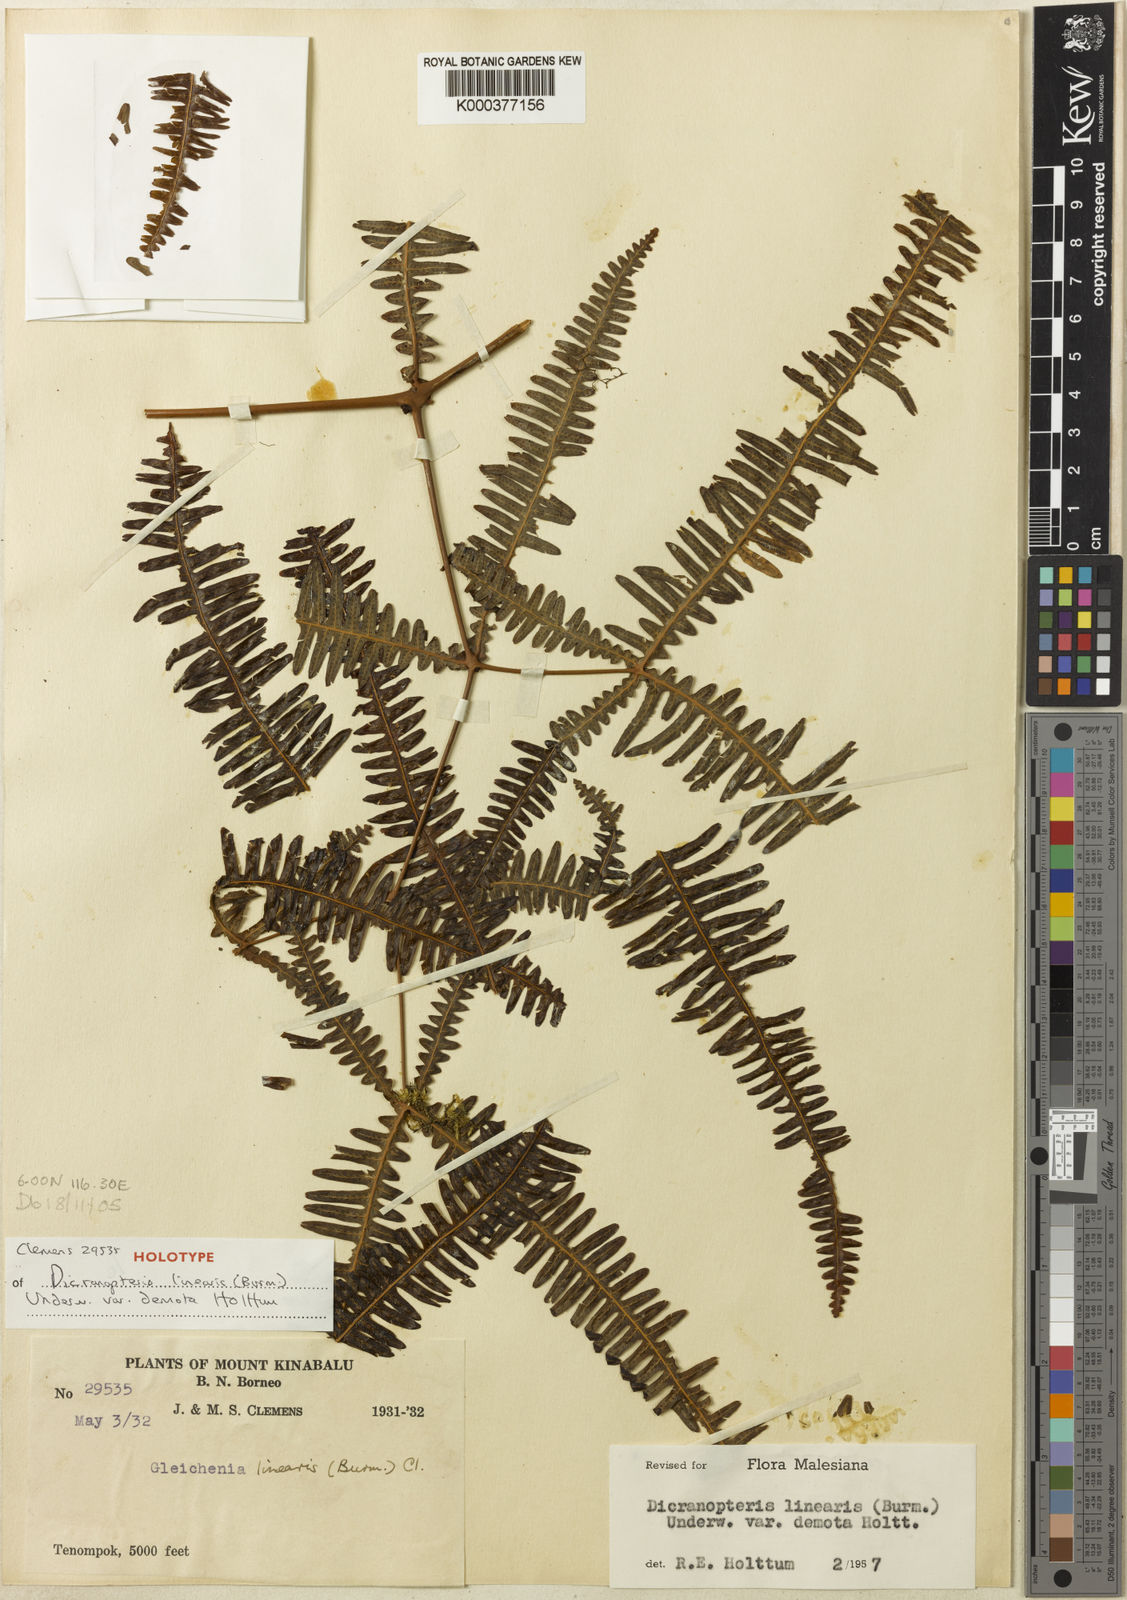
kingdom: Plantae
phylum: Tracheophyta
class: Polypodiopsida
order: Gleicheniales
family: Gleicheniaceae
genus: Dicranopteris
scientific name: Dicranopteris linearis
